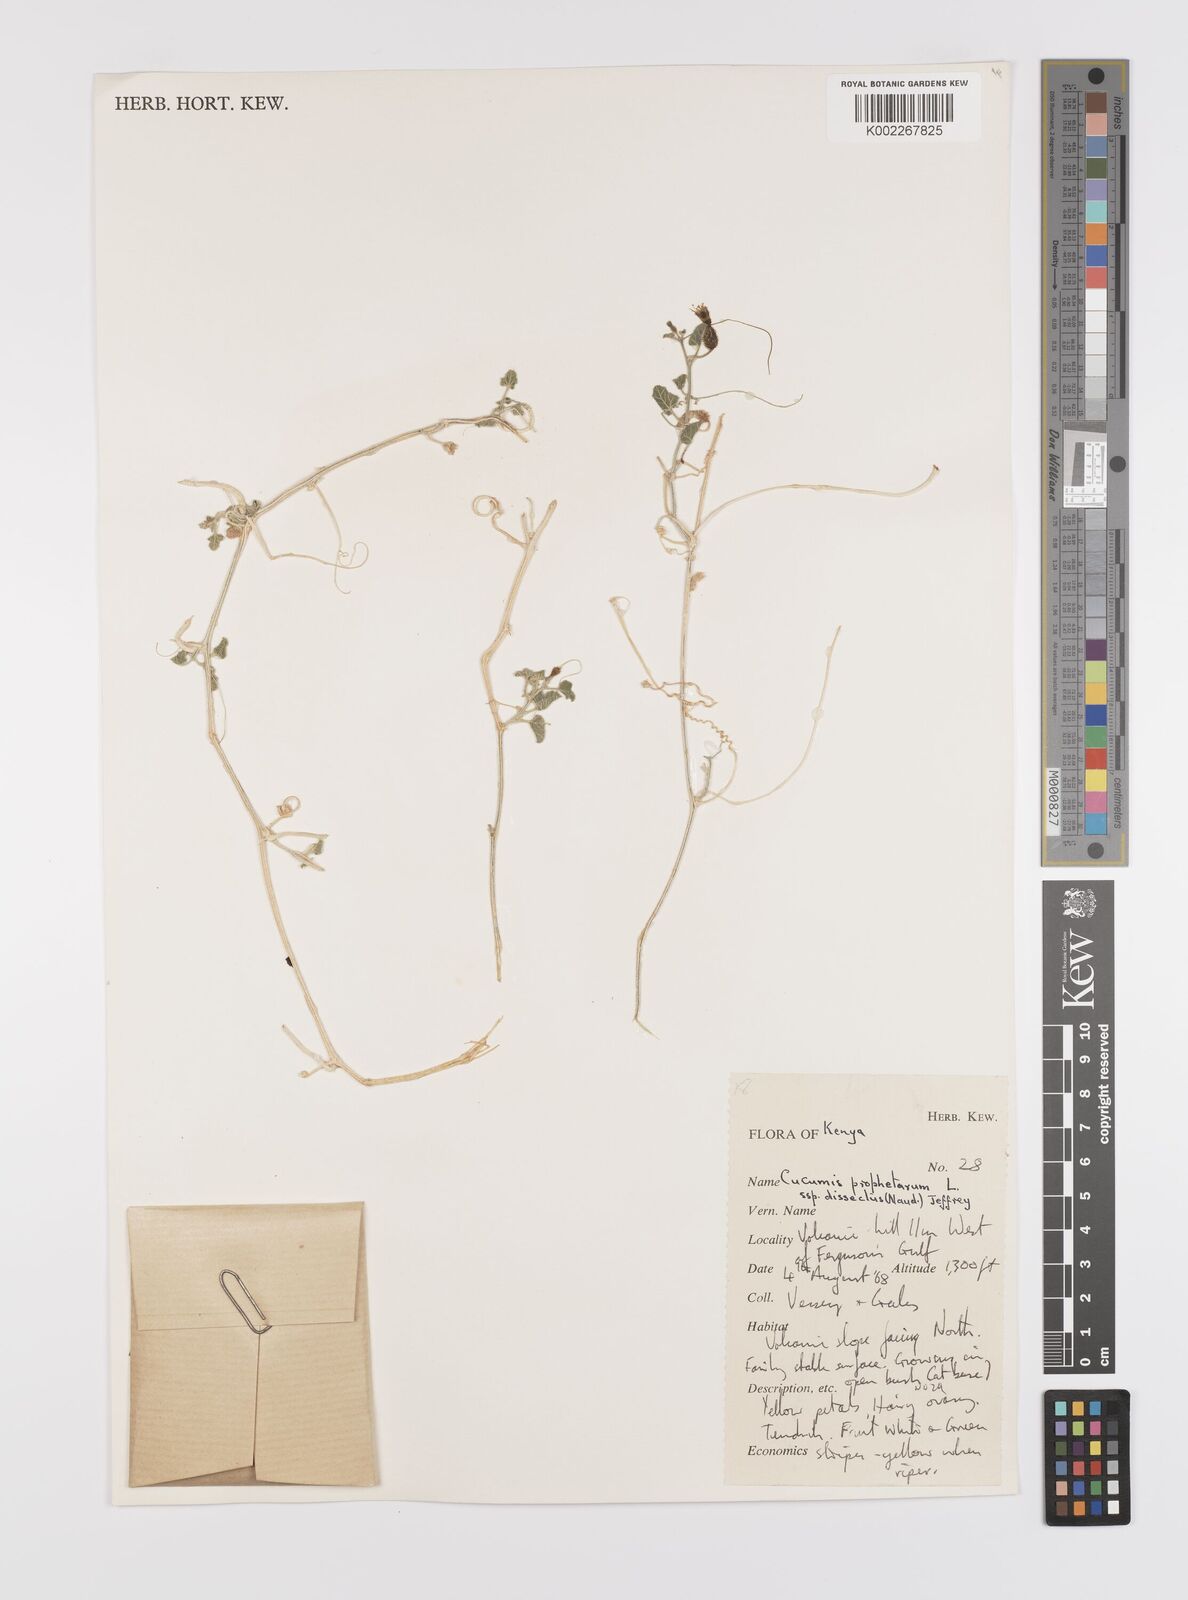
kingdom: Plantae
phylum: Tracheophyta
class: Magnoliopsida
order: Cucurbitales
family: Cucurbitaceae
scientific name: Cucurbitaceae
